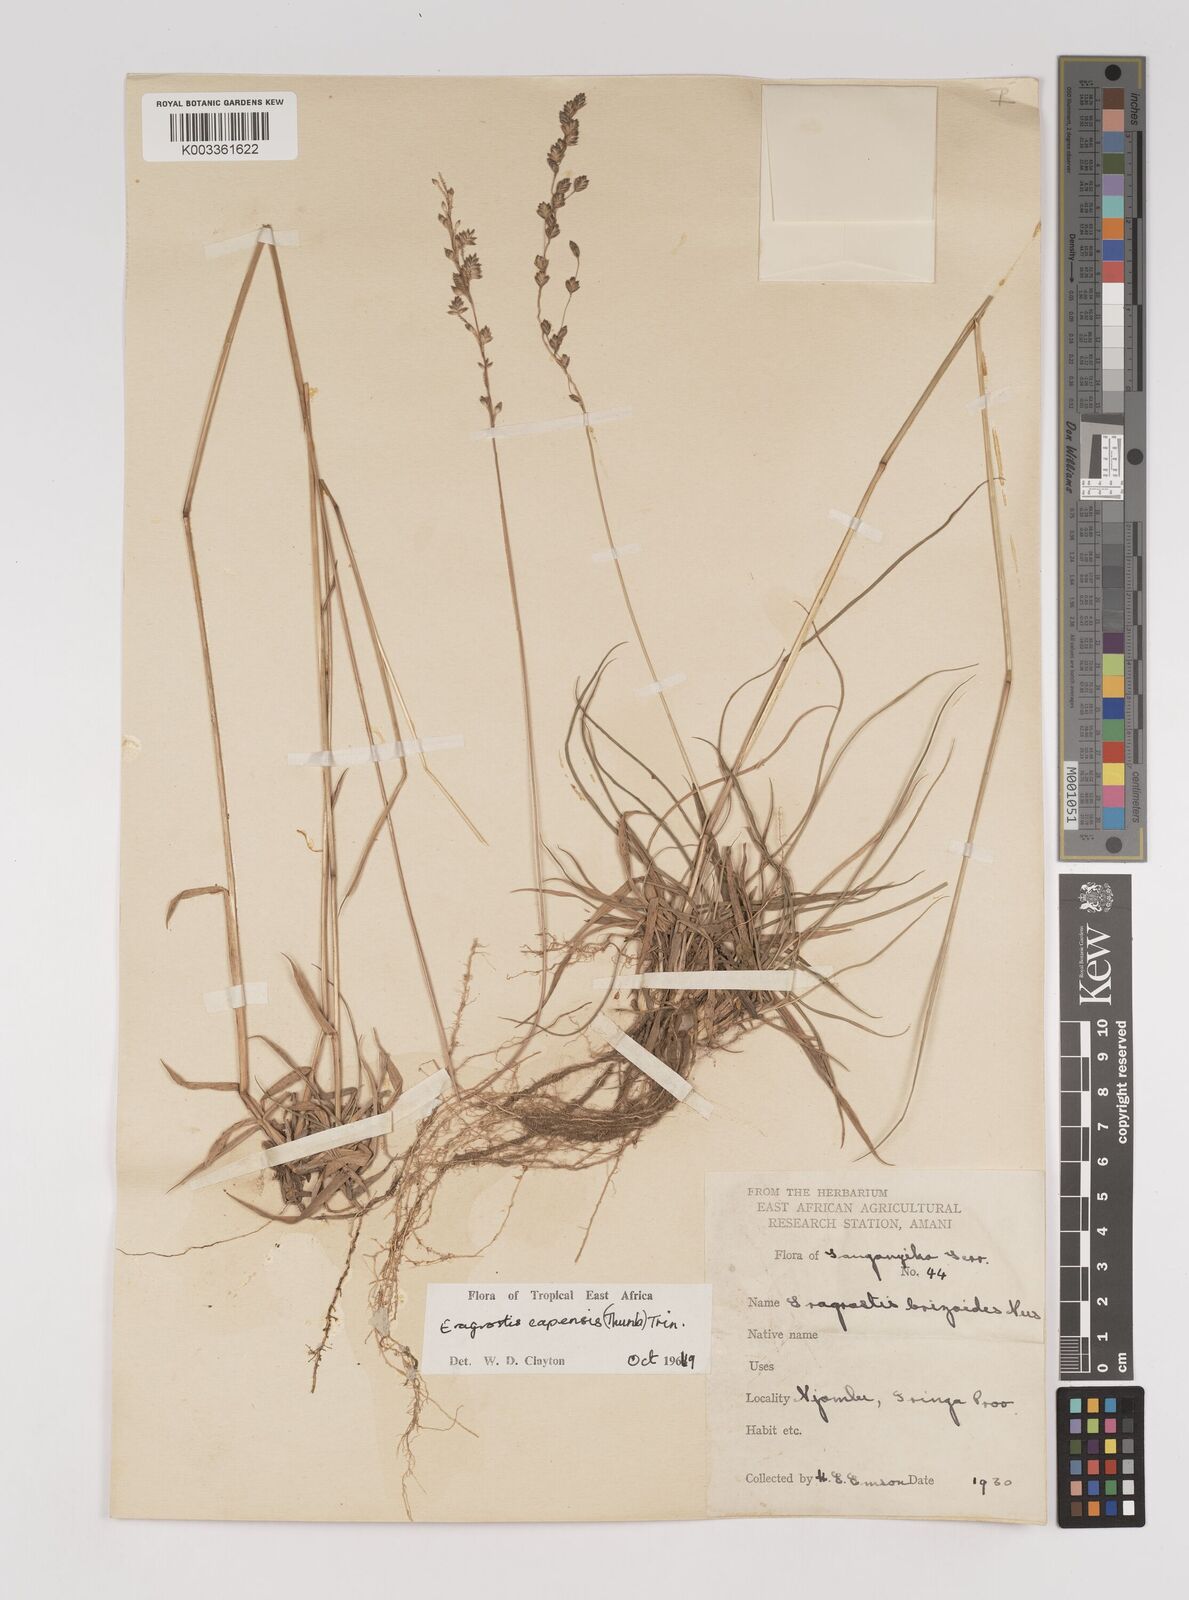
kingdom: Plantae
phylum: Tracheophyta
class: Liliopsida
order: Poales
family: Poaceae
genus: Eragrostis
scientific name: Eragrostis capensis
